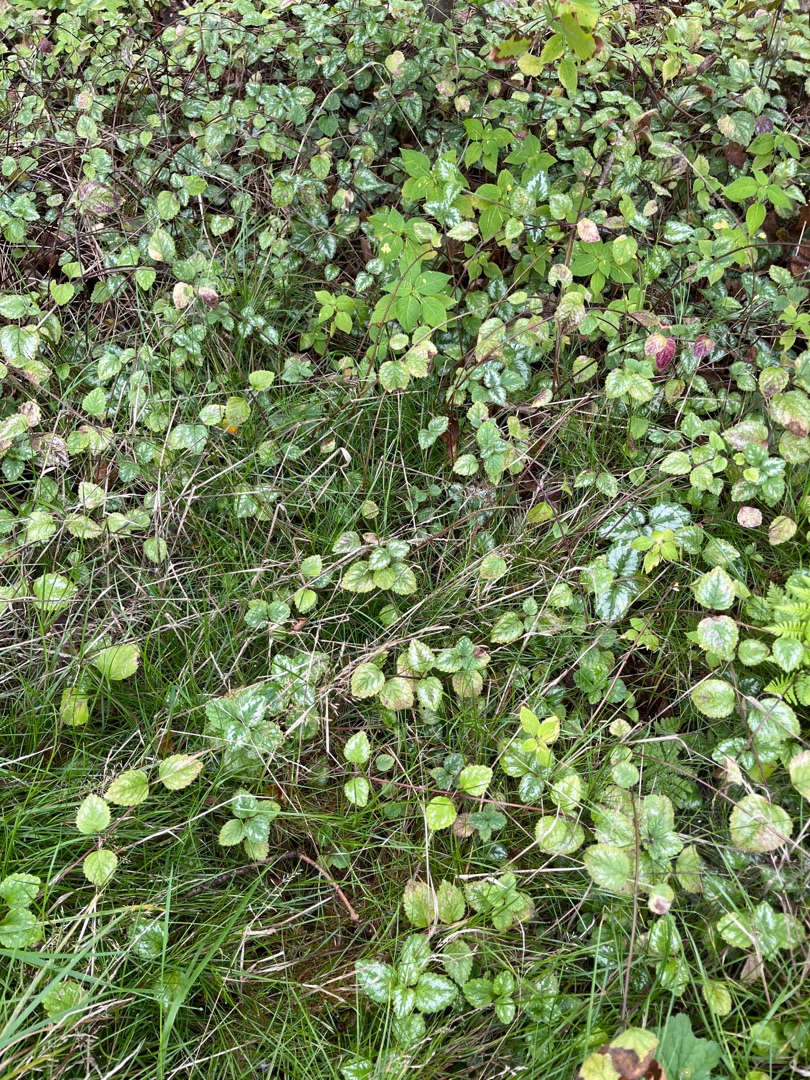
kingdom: Plantae
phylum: Tracheophyta
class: Magnoliopsida
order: Lamiales
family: Lamiaceae
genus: Lamium
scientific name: Lamium galeobdolon
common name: Have-guldnælde
